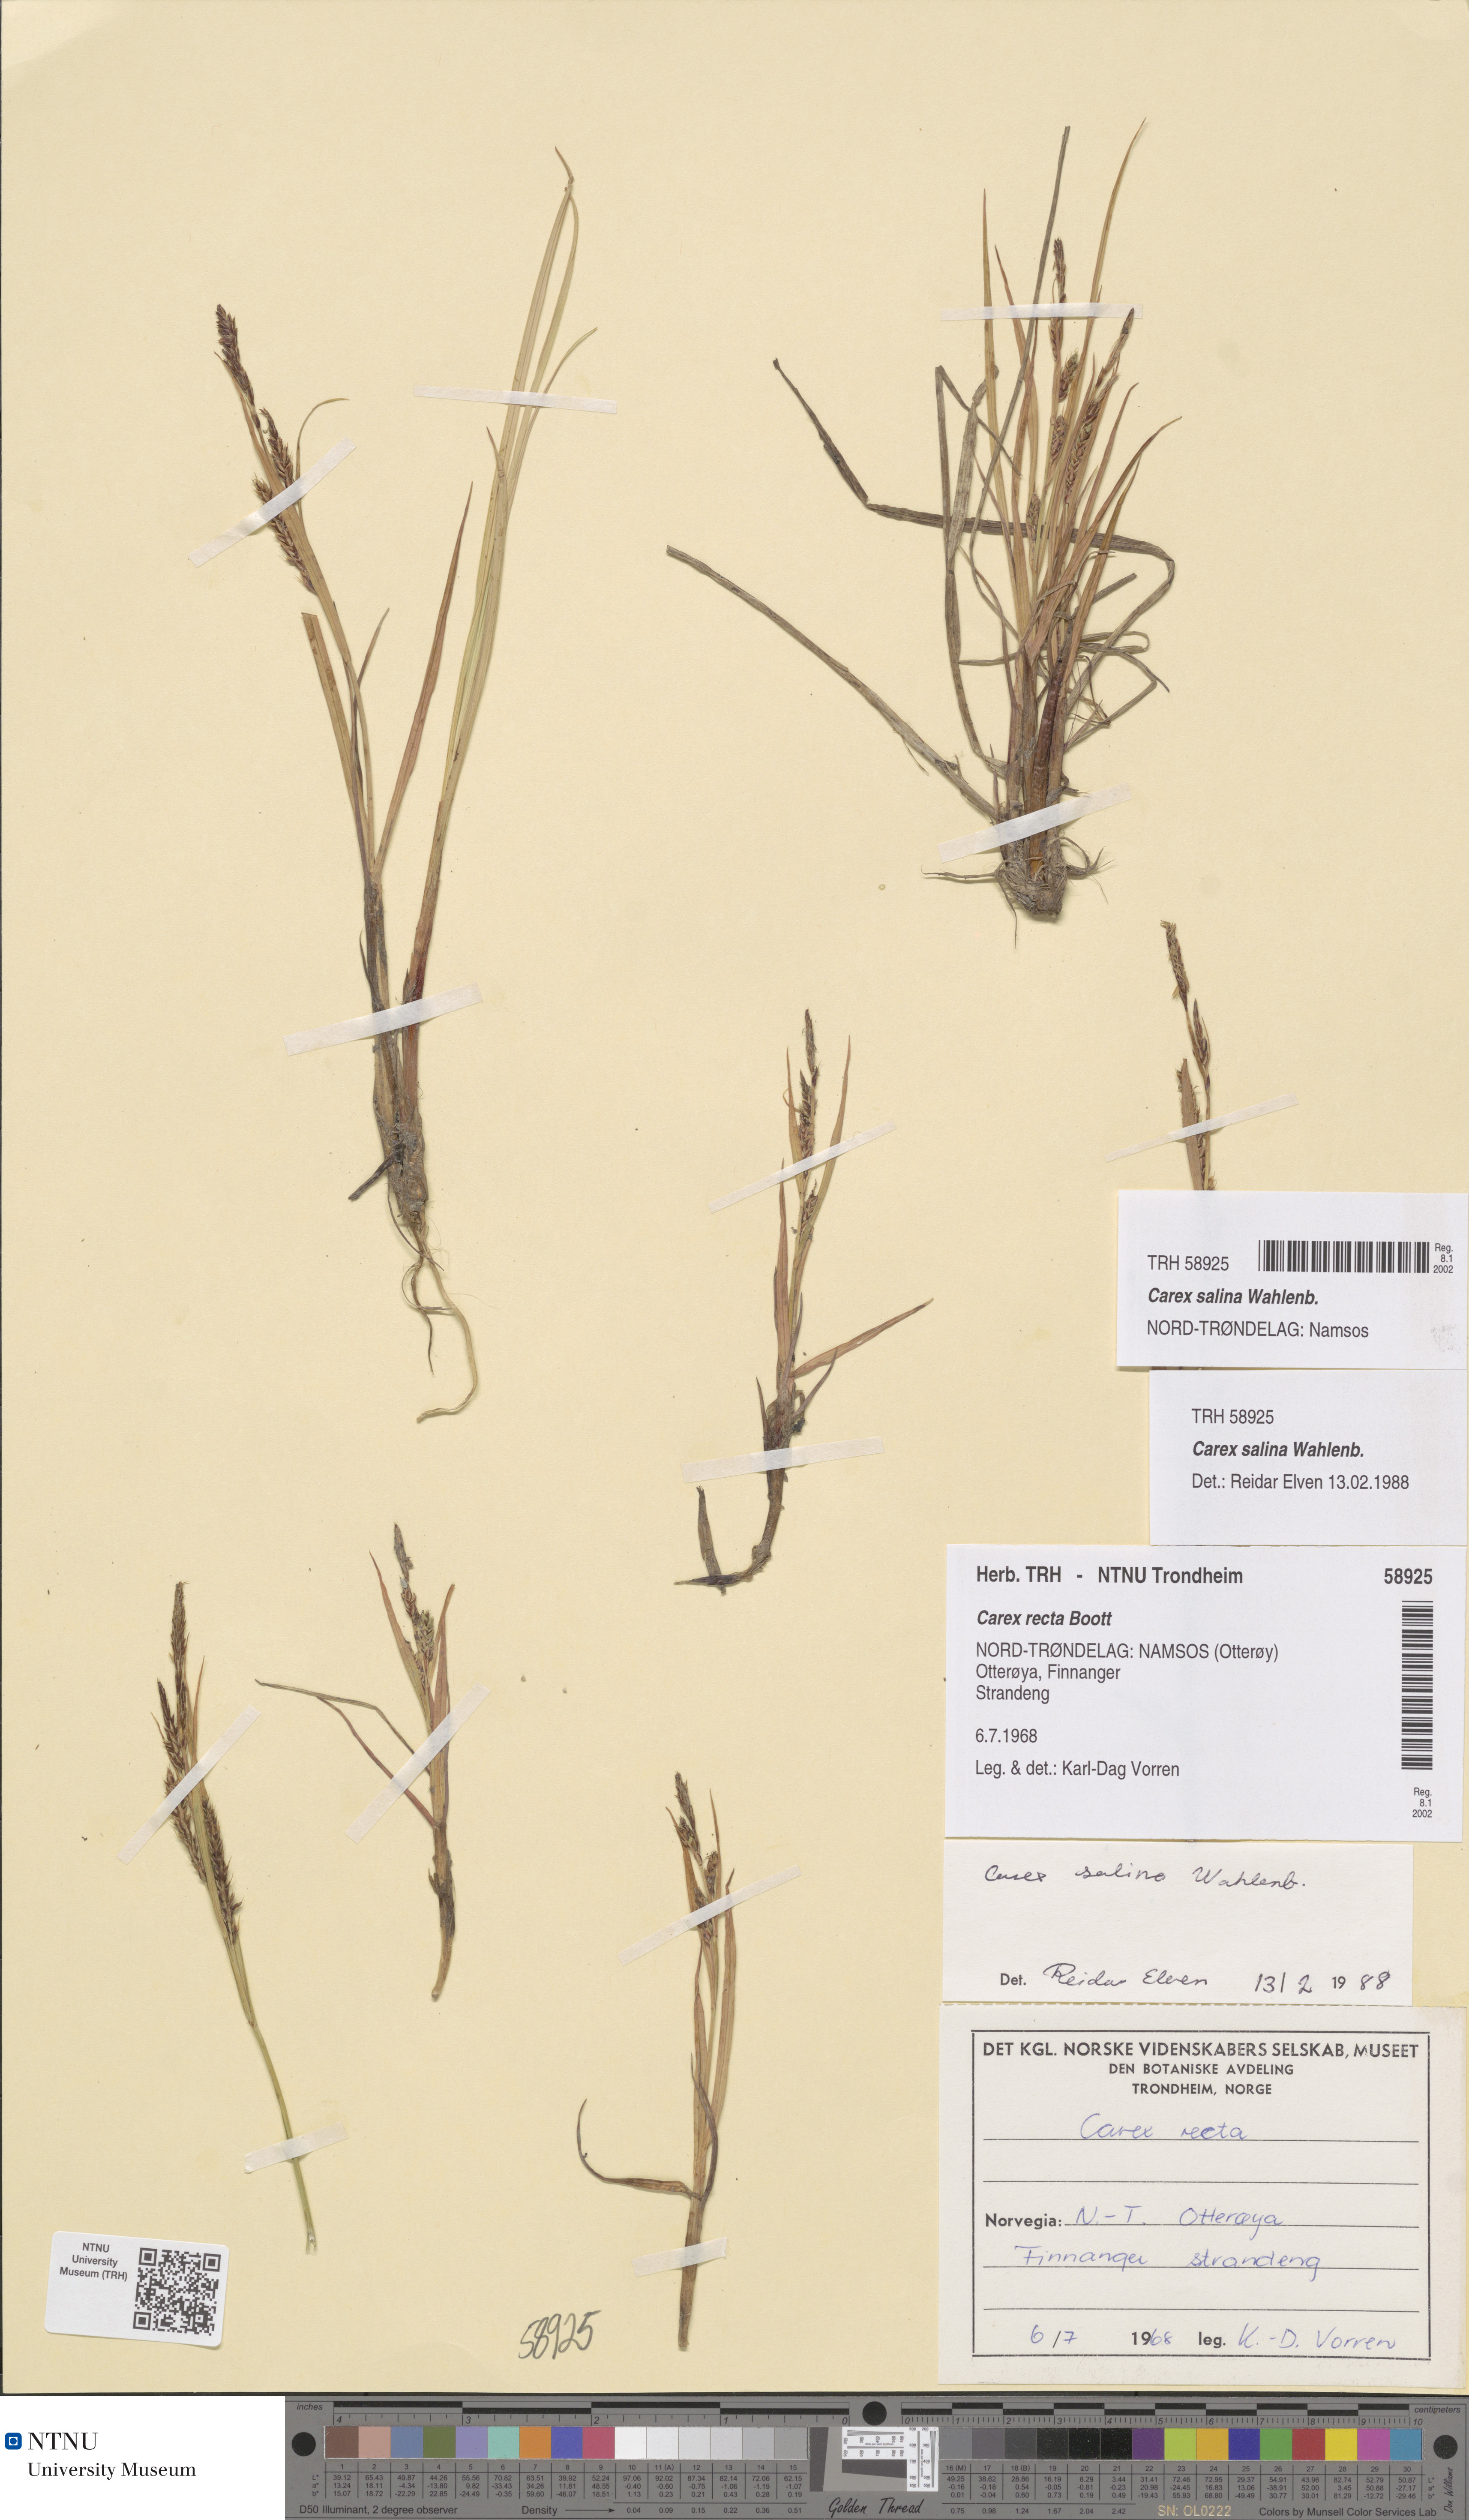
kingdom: Plantae
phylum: Tracheophyta
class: Liliopsida
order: Poales
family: Cyperaceae
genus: Carex
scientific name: Carex salina
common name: Saltmarsh sedge
